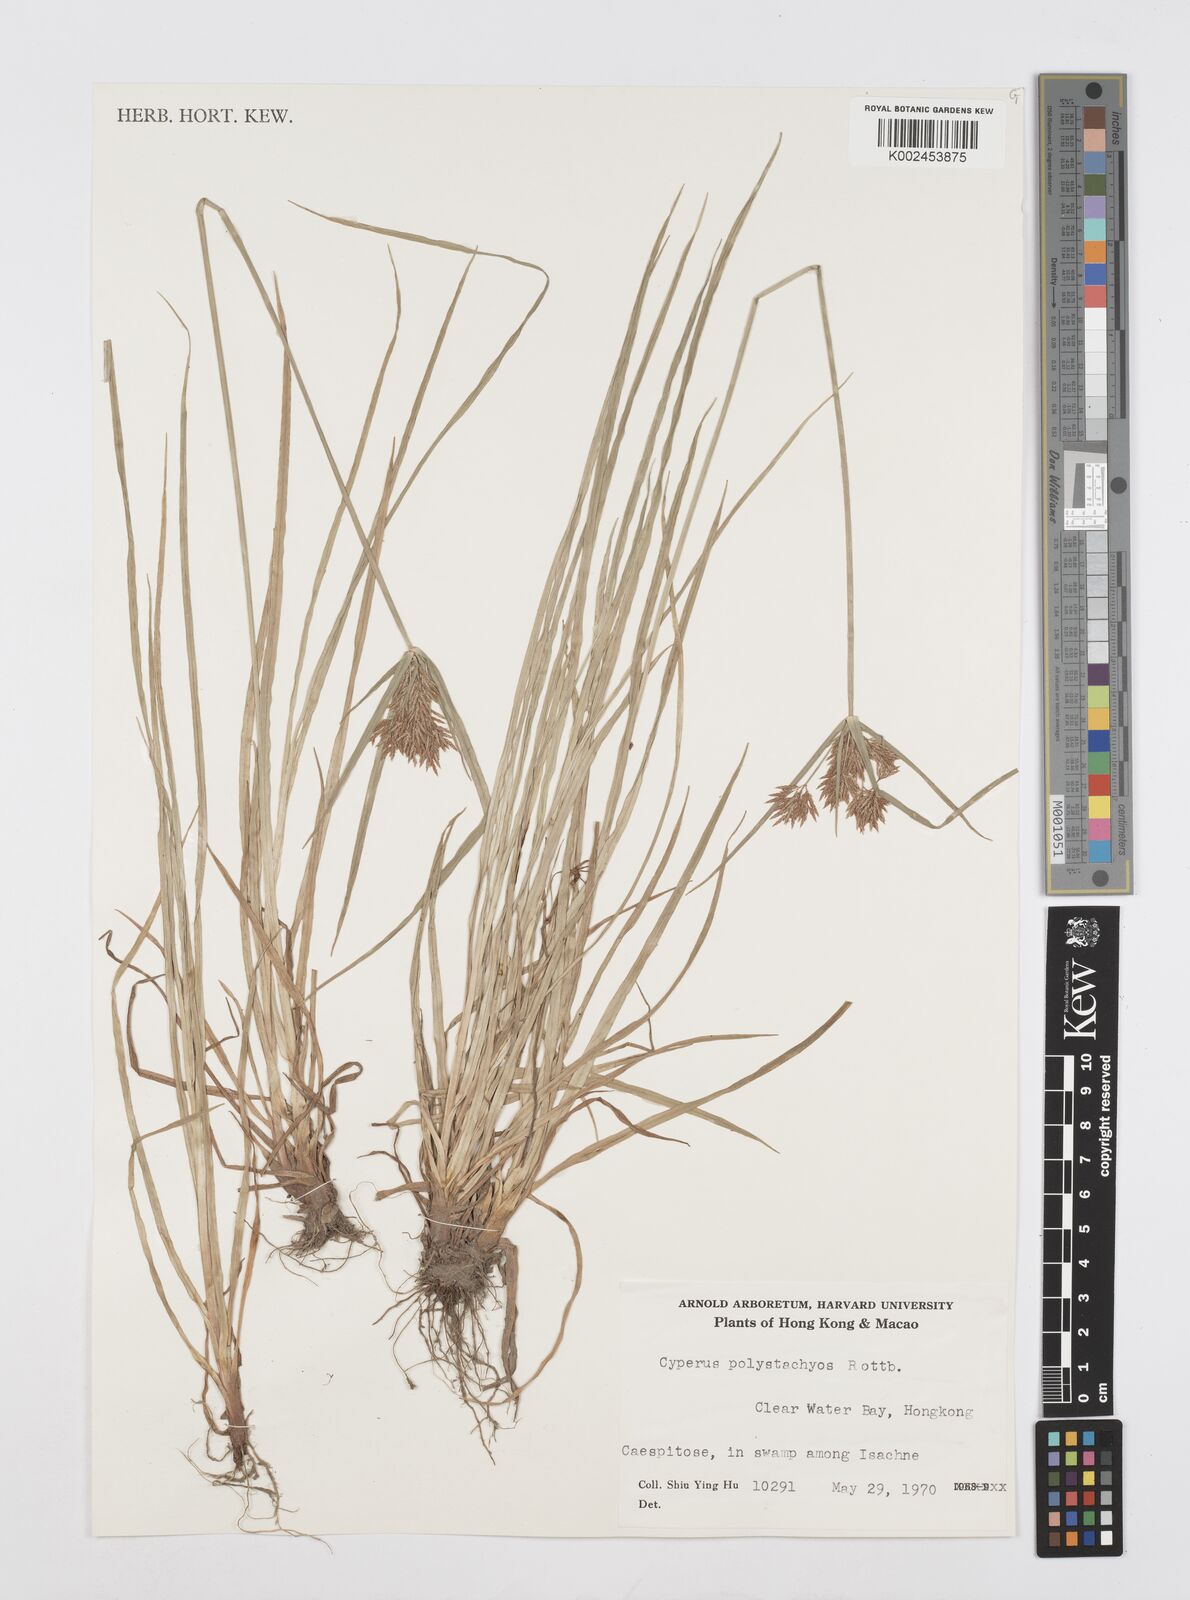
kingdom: Plantae
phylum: Tracheophyta
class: Liliopsida
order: Poales
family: Cyperaceae
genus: Cyperus
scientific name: Cyperus polystachyos
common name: Bunchy flat sedge
